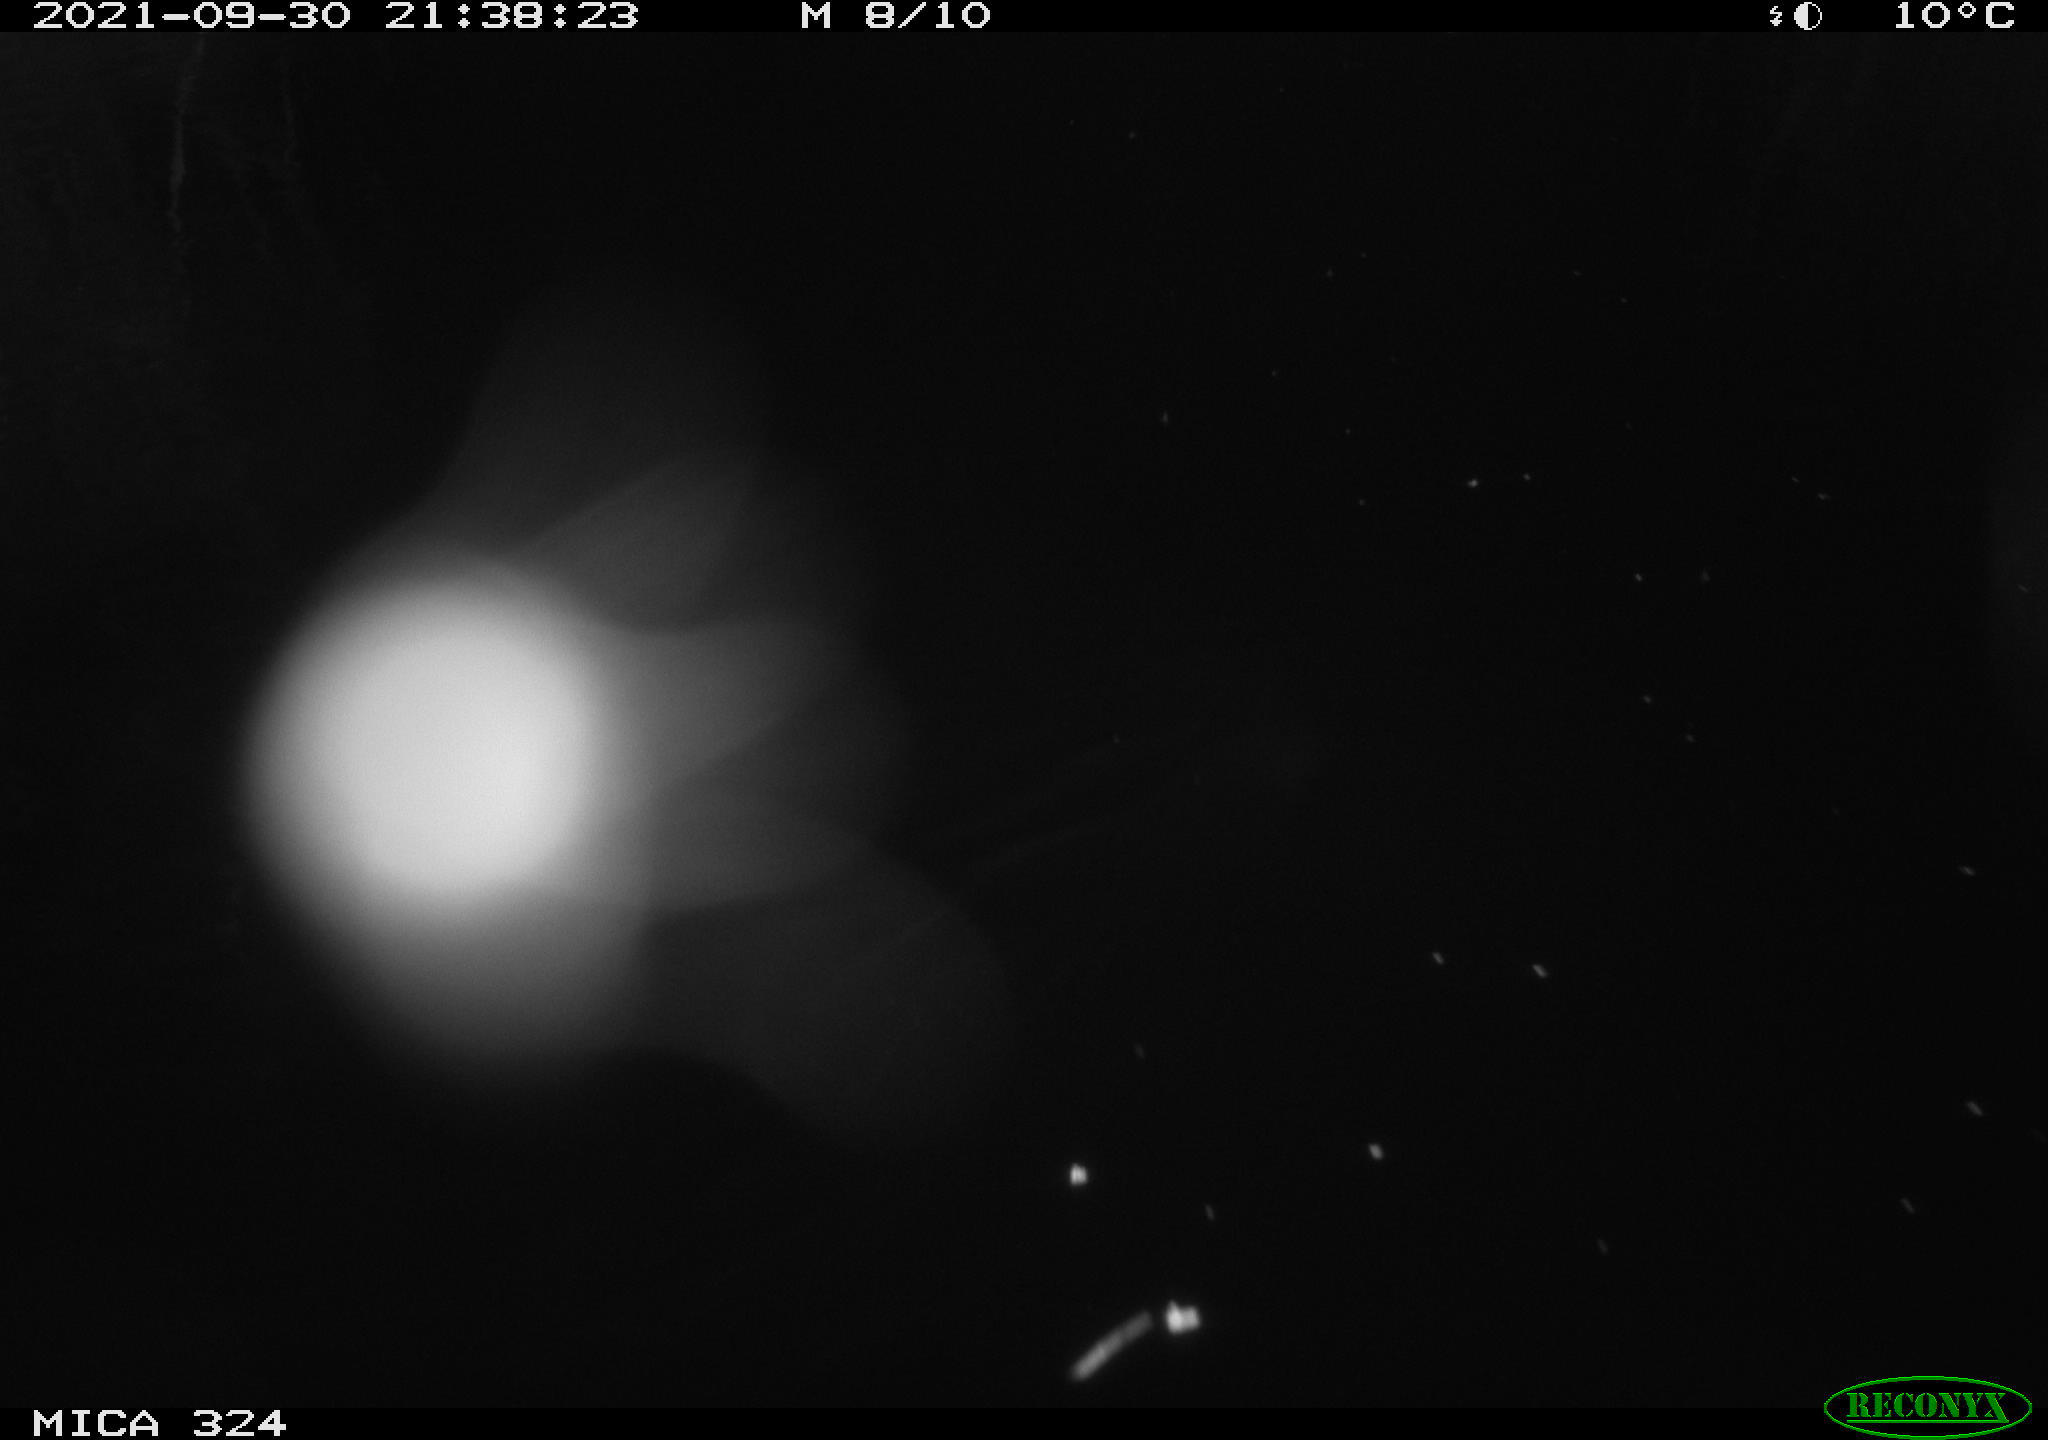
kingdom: Animalia
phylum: Chordata
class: Mammalia
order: Rodentia
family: Cricetidae
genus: Ondatra
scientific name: Ondatra zibethicus
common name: Muskrat
